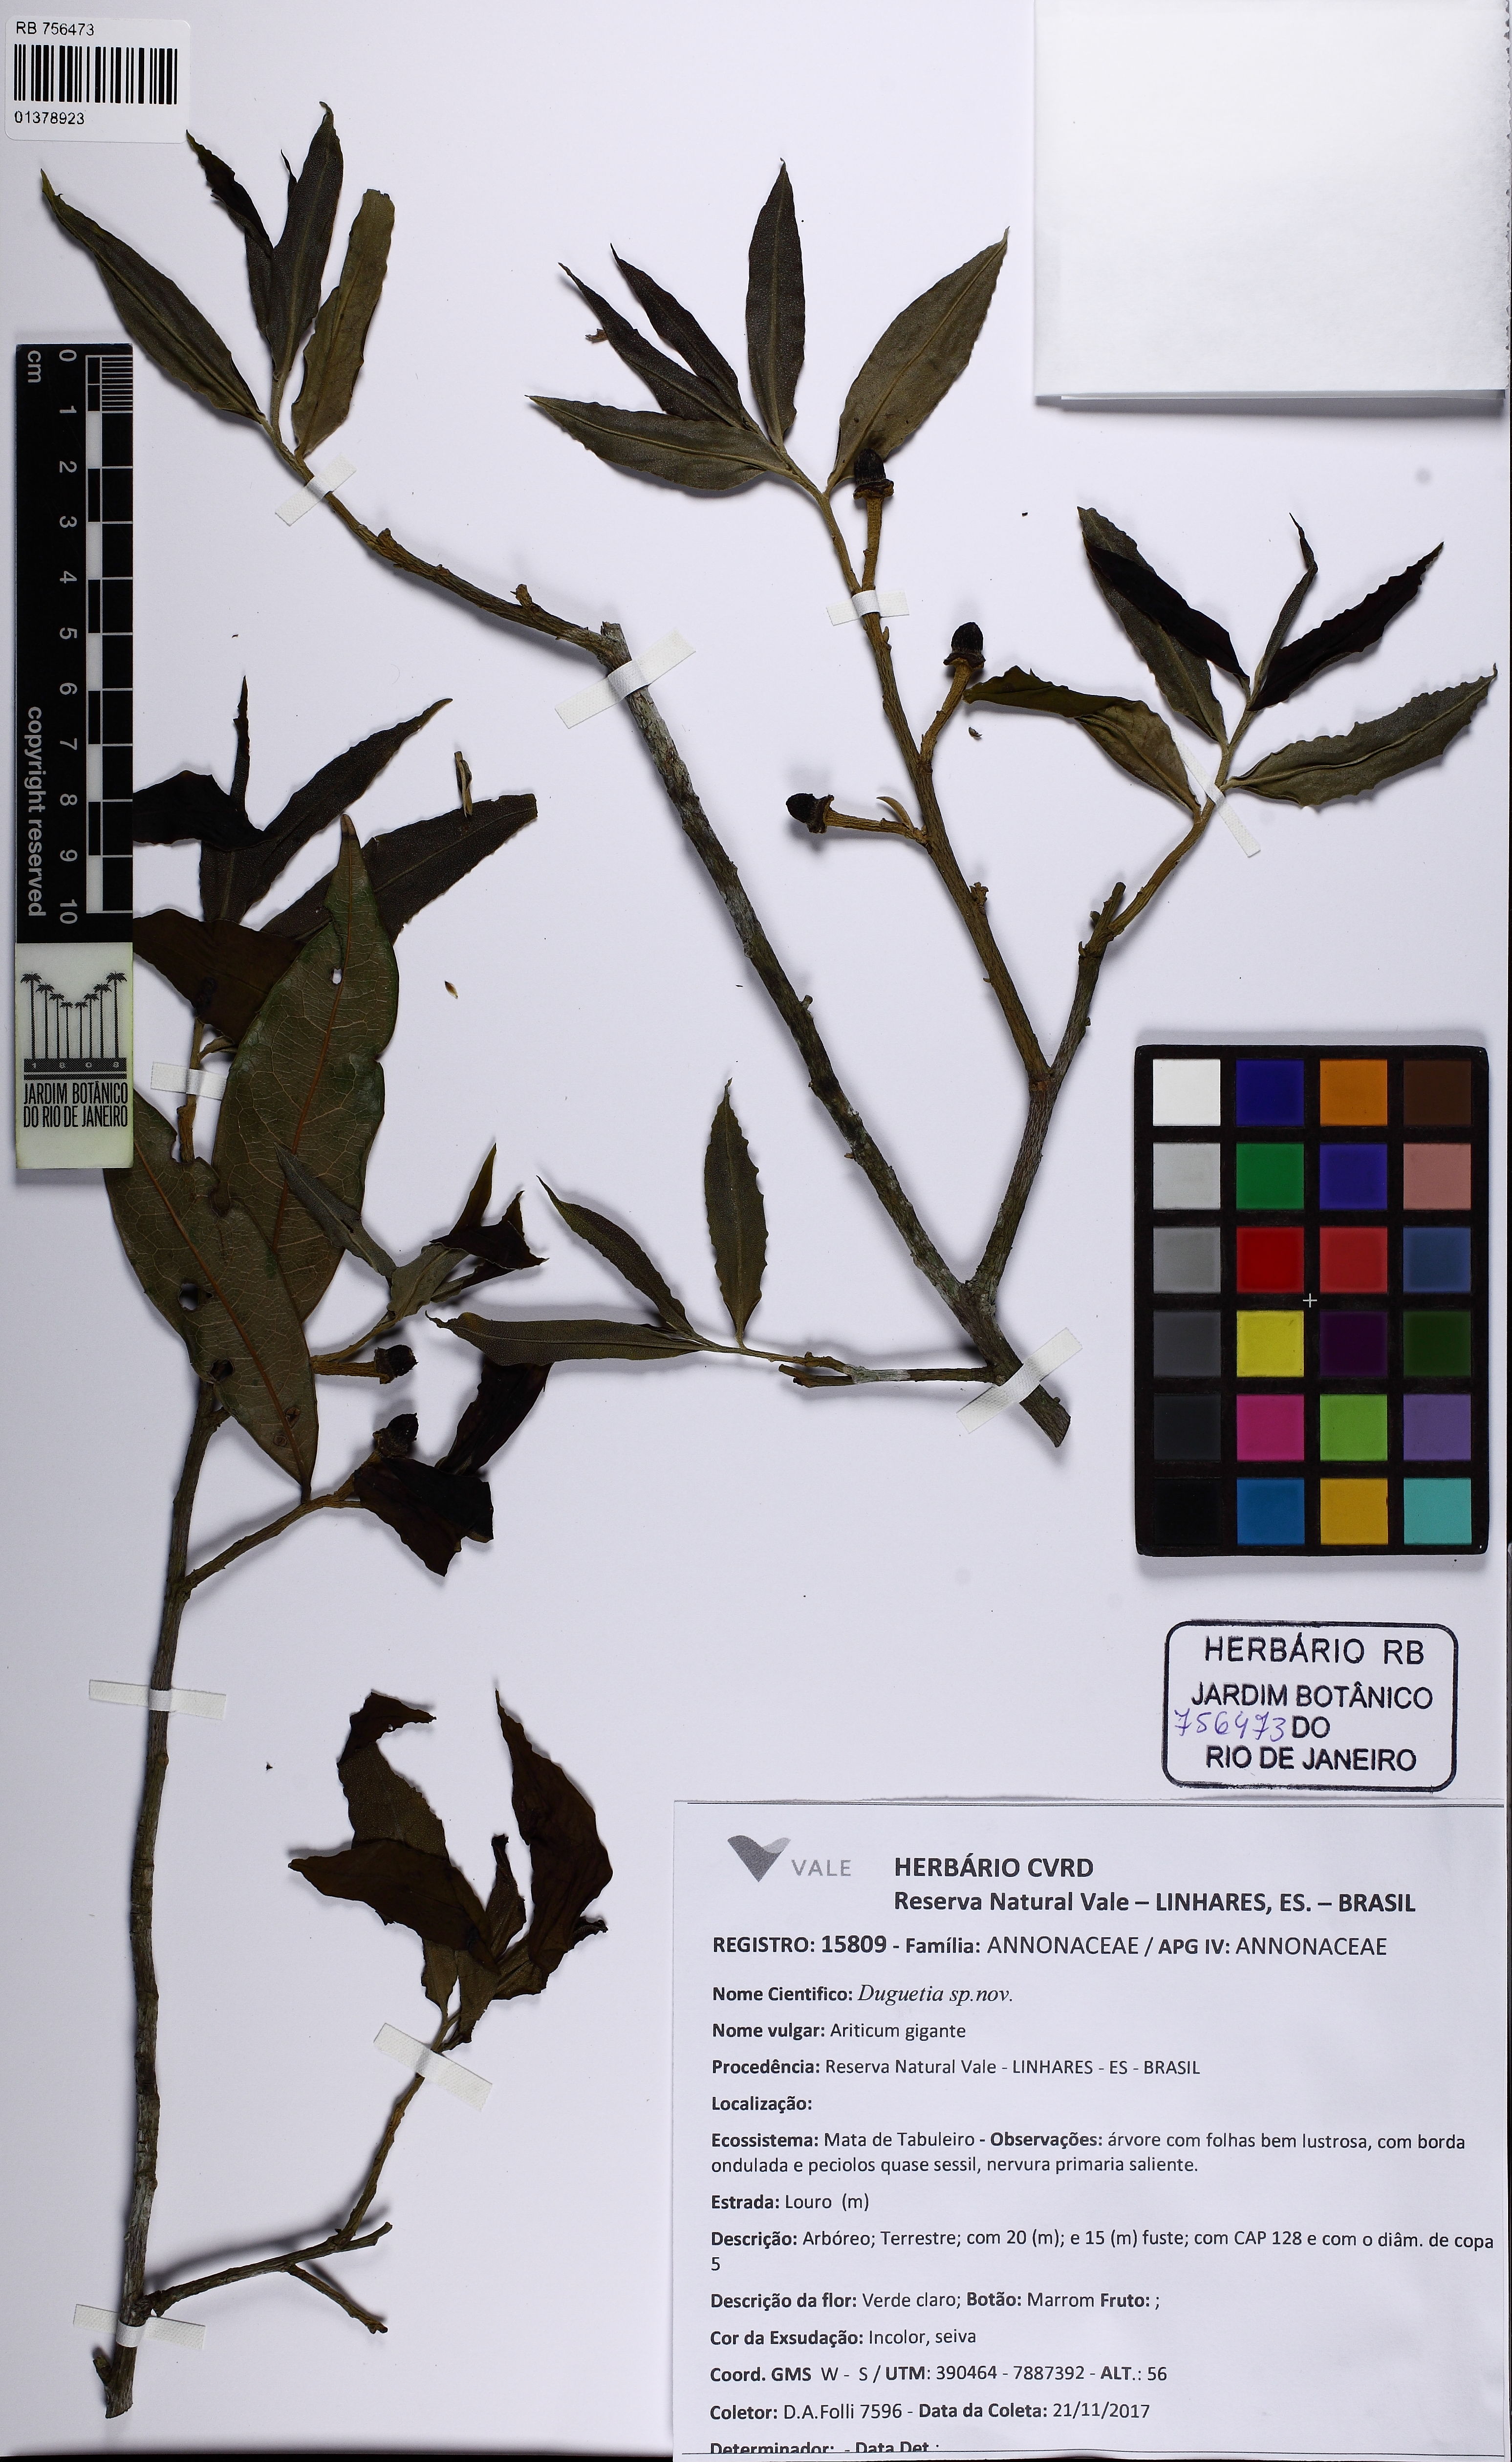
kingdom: Plantae
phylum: Tracheophyta
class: Magnoliopsida
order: Magnoliales
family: Annonaceae
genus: Duguetia
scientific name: Duguetia
